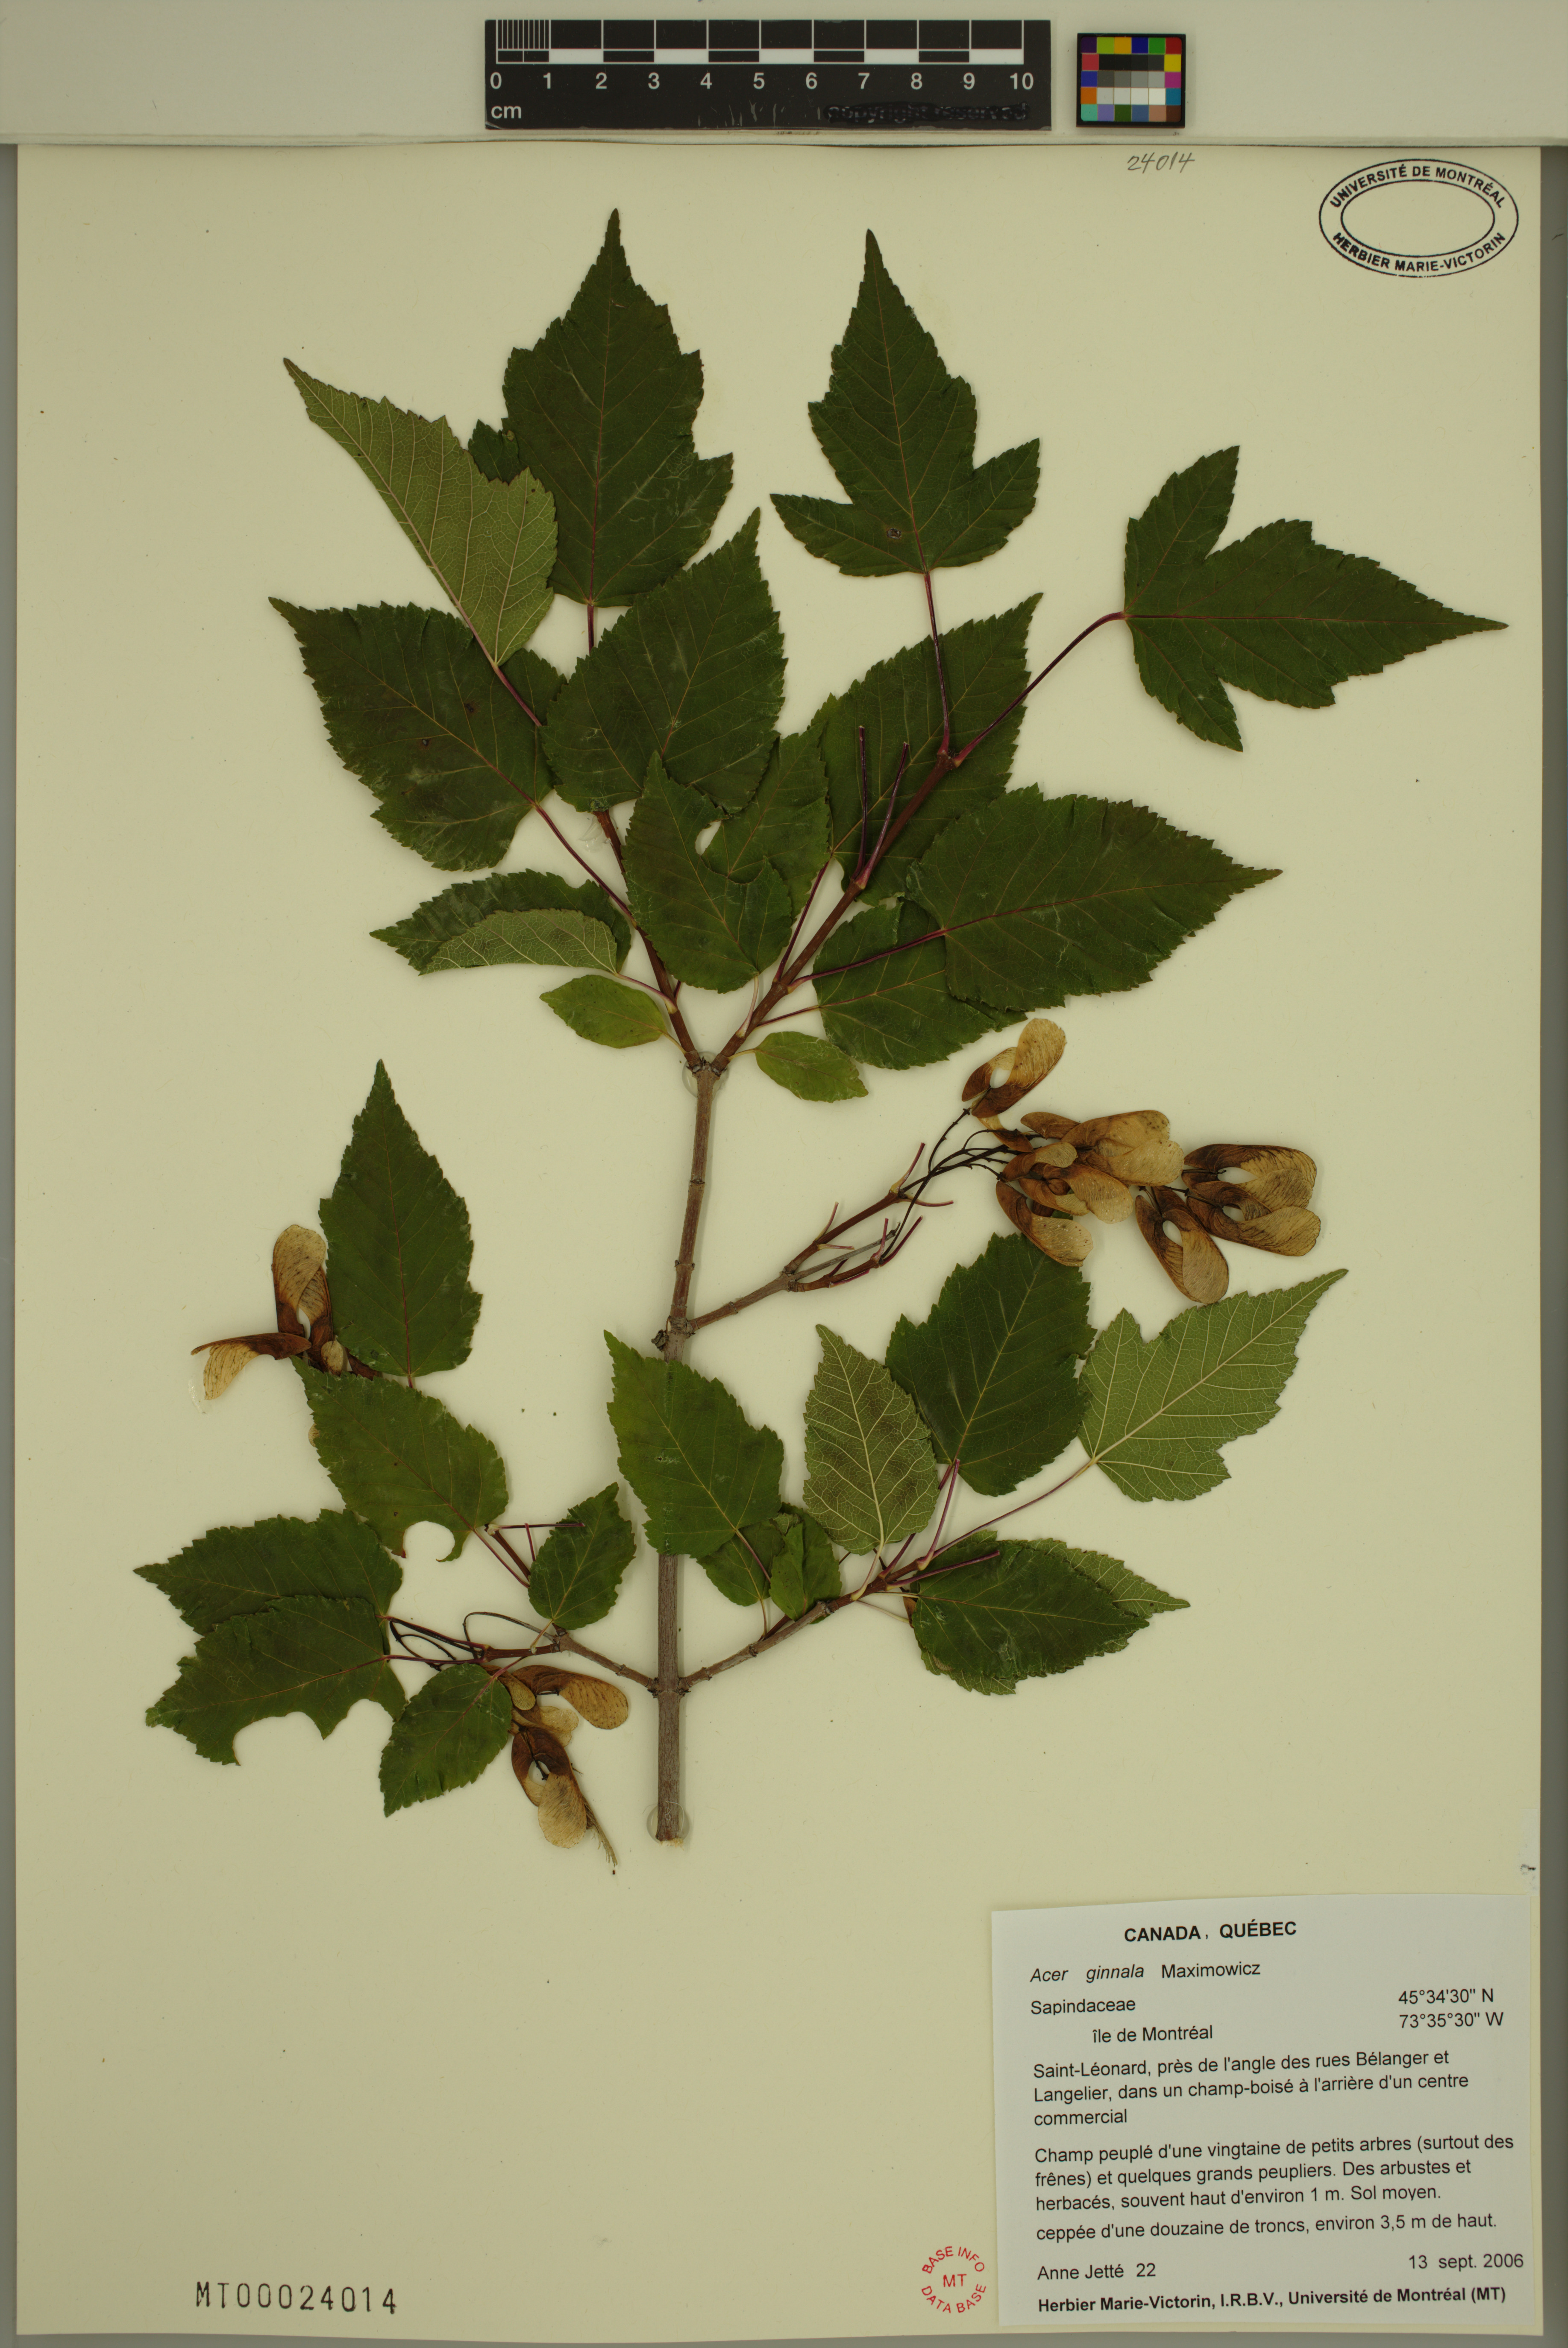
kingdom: Plantae
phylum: Tracheophyta
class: Magnoliopsida
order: Sapindales
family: Sapindaceae
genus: Acer
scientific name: Acer tataricum
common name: Tartar maple
